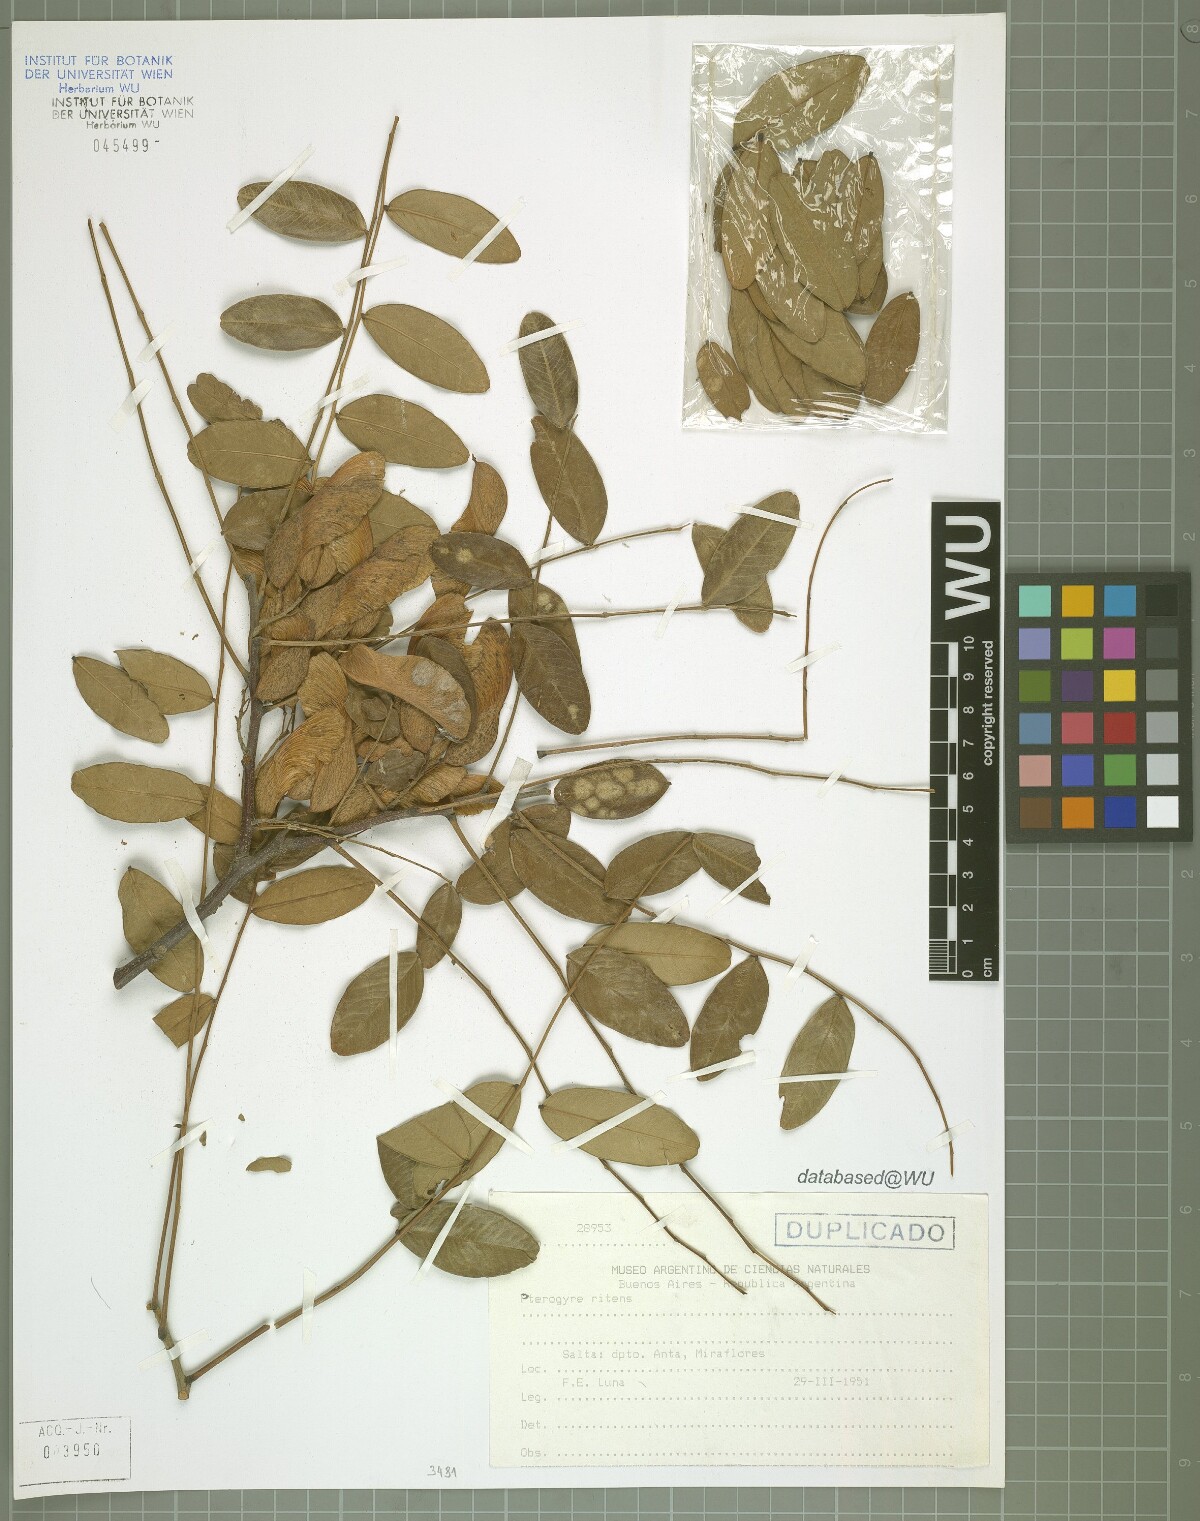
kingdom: Plantae
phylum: Tracheophyta
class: Magnoliopsida
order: Fabales
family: Fabaceae
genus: Pterogyne
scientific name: Pterogyne nitens
